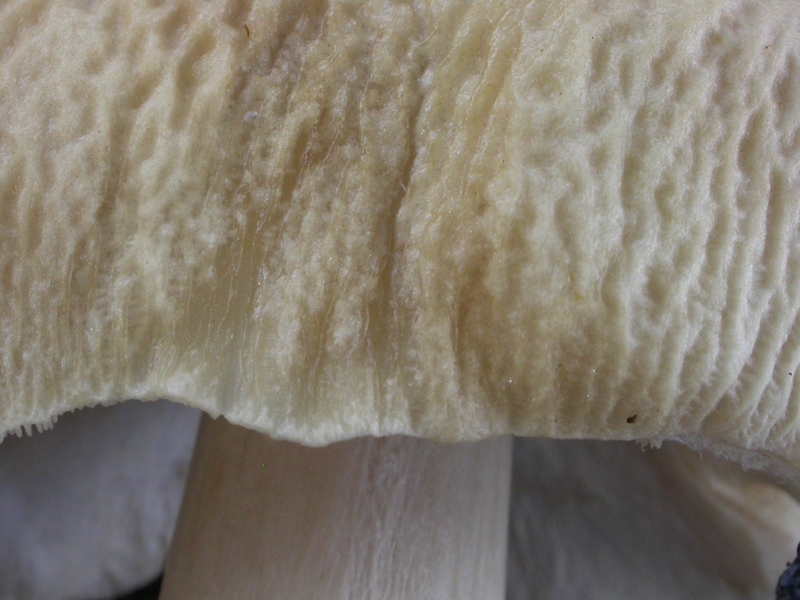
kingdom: Fungi
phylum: Basidiomycota
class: Agaricomycetes
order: Agaricales
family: Strophariaceae
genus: Agrocybe
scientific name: Agrocybe rivulosa
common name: året agerhat
